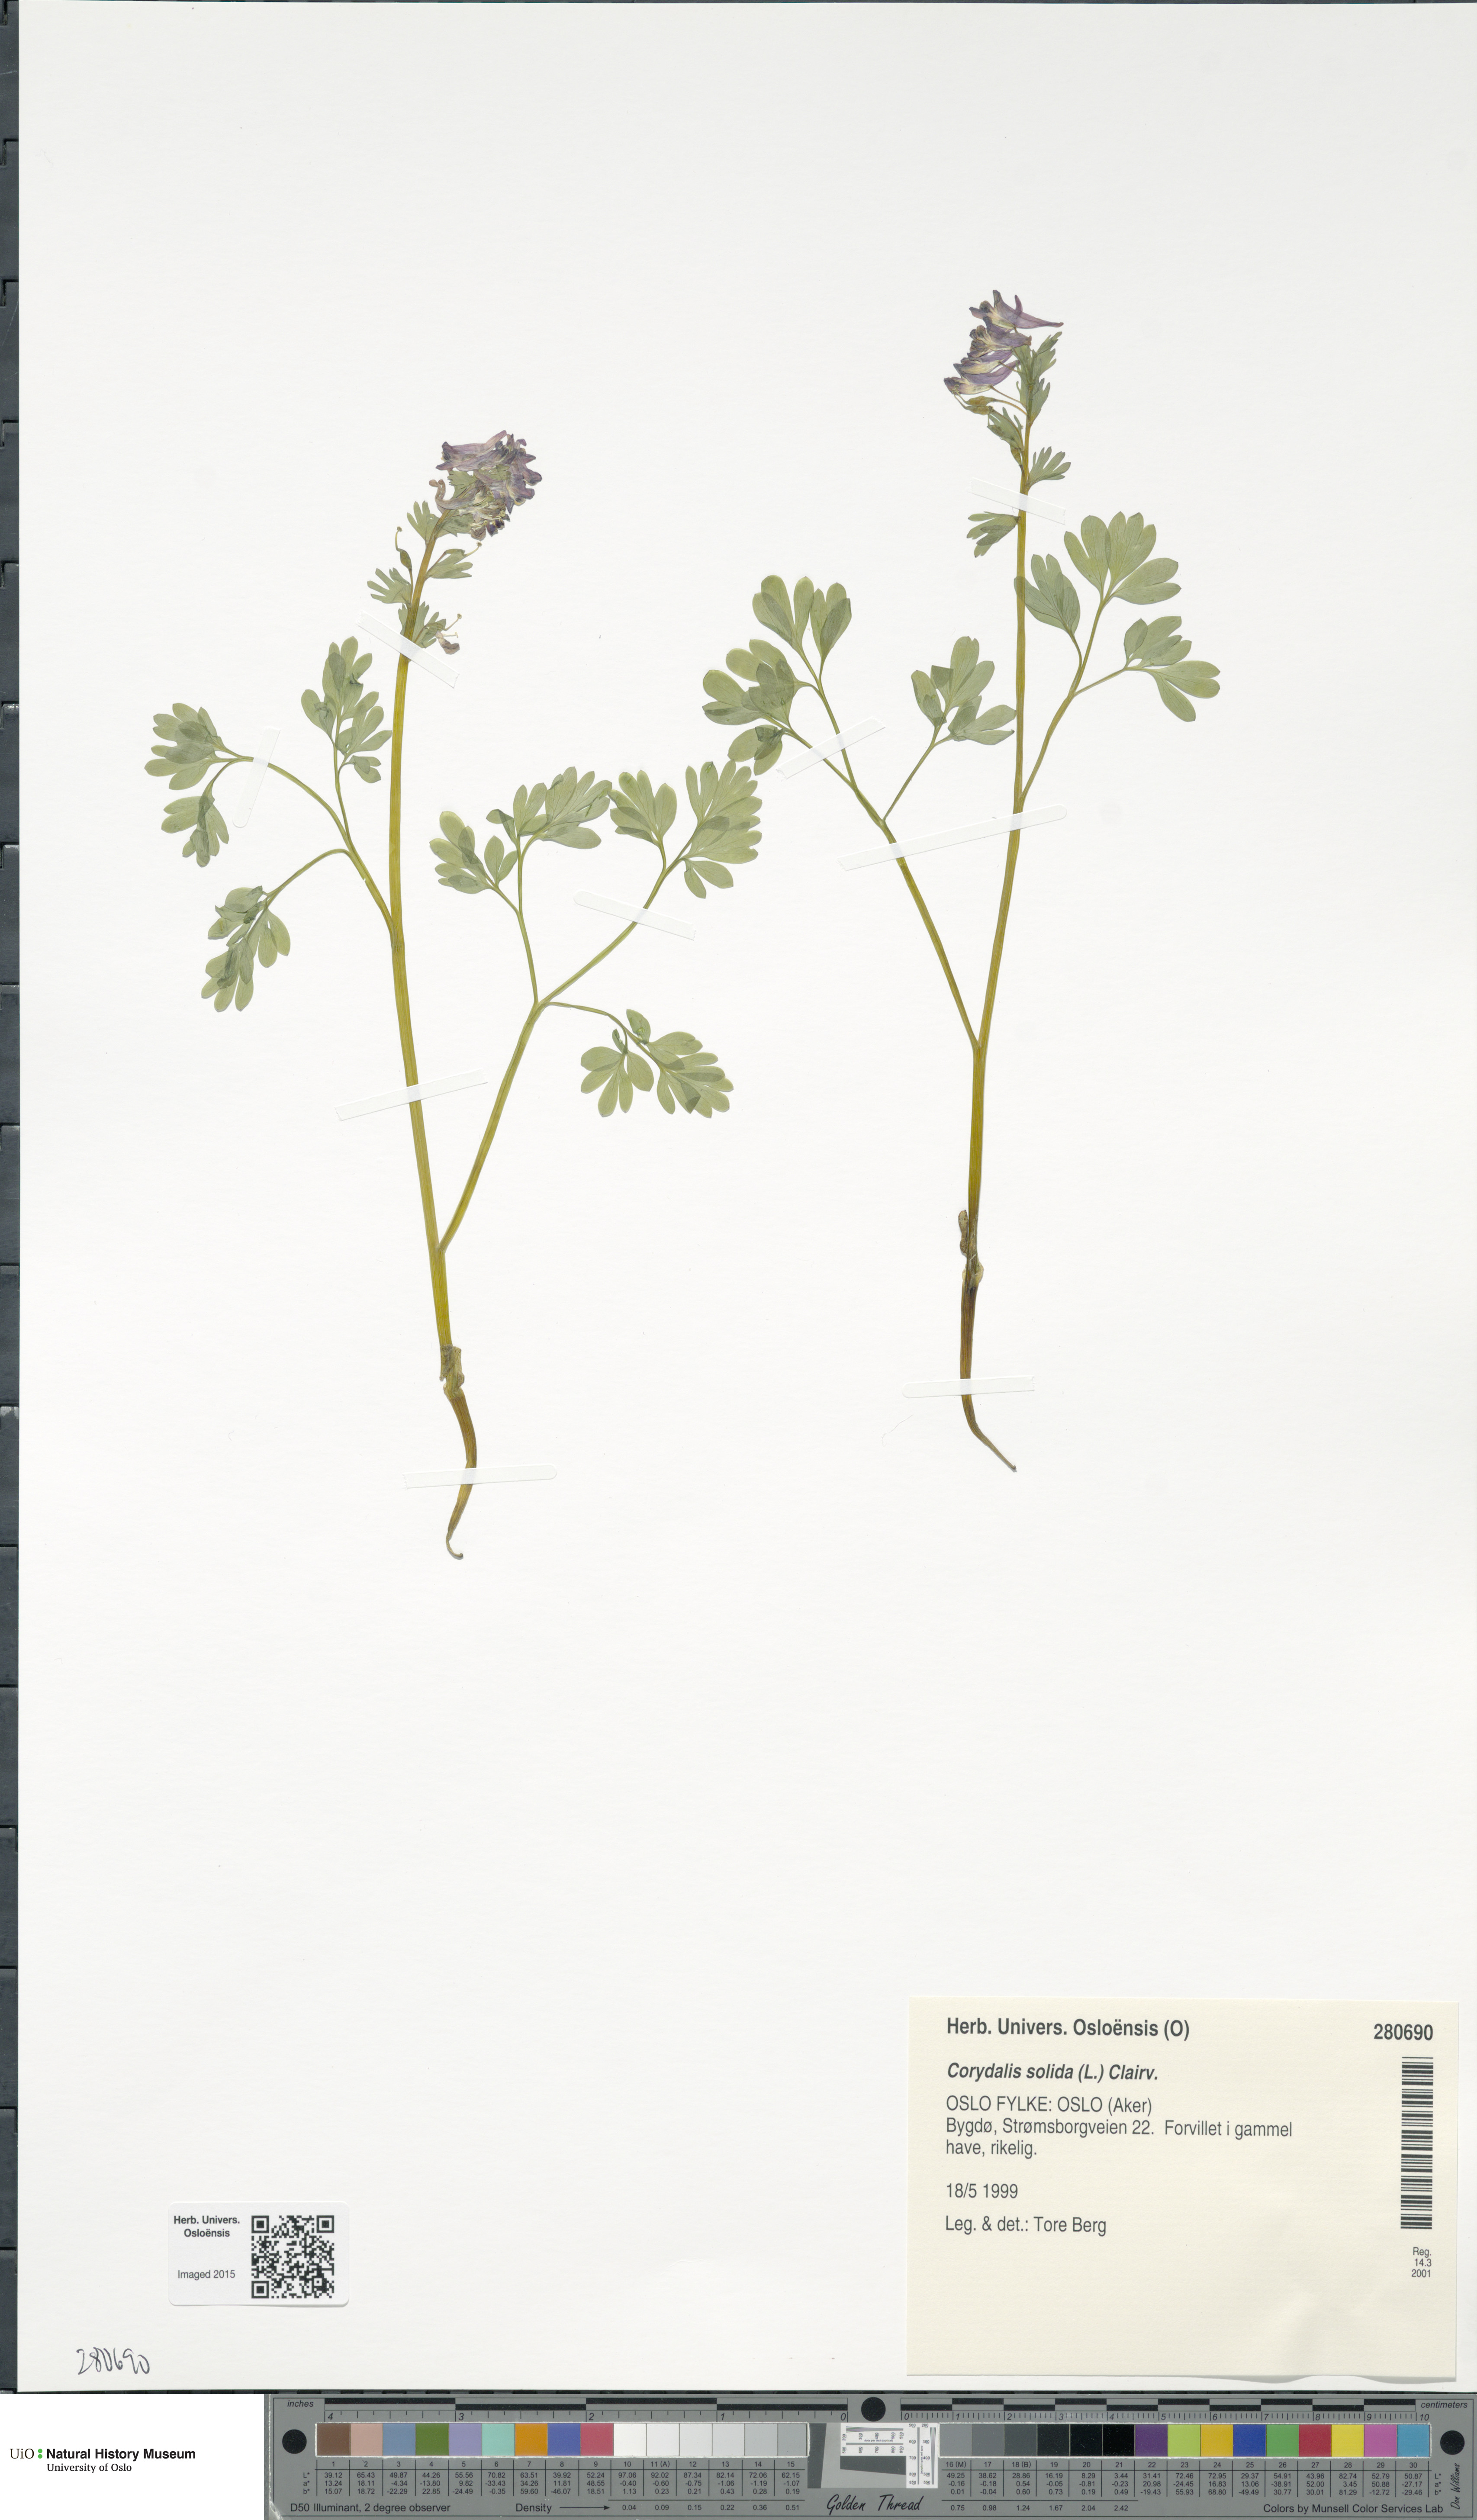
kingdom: Plantae
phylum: Tracheophyta
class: Magnoliopsida
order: Ranunculales
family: Papaveraceae
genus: Corydalis
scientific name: Corydalis solida
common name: Bird-in-a-bush
